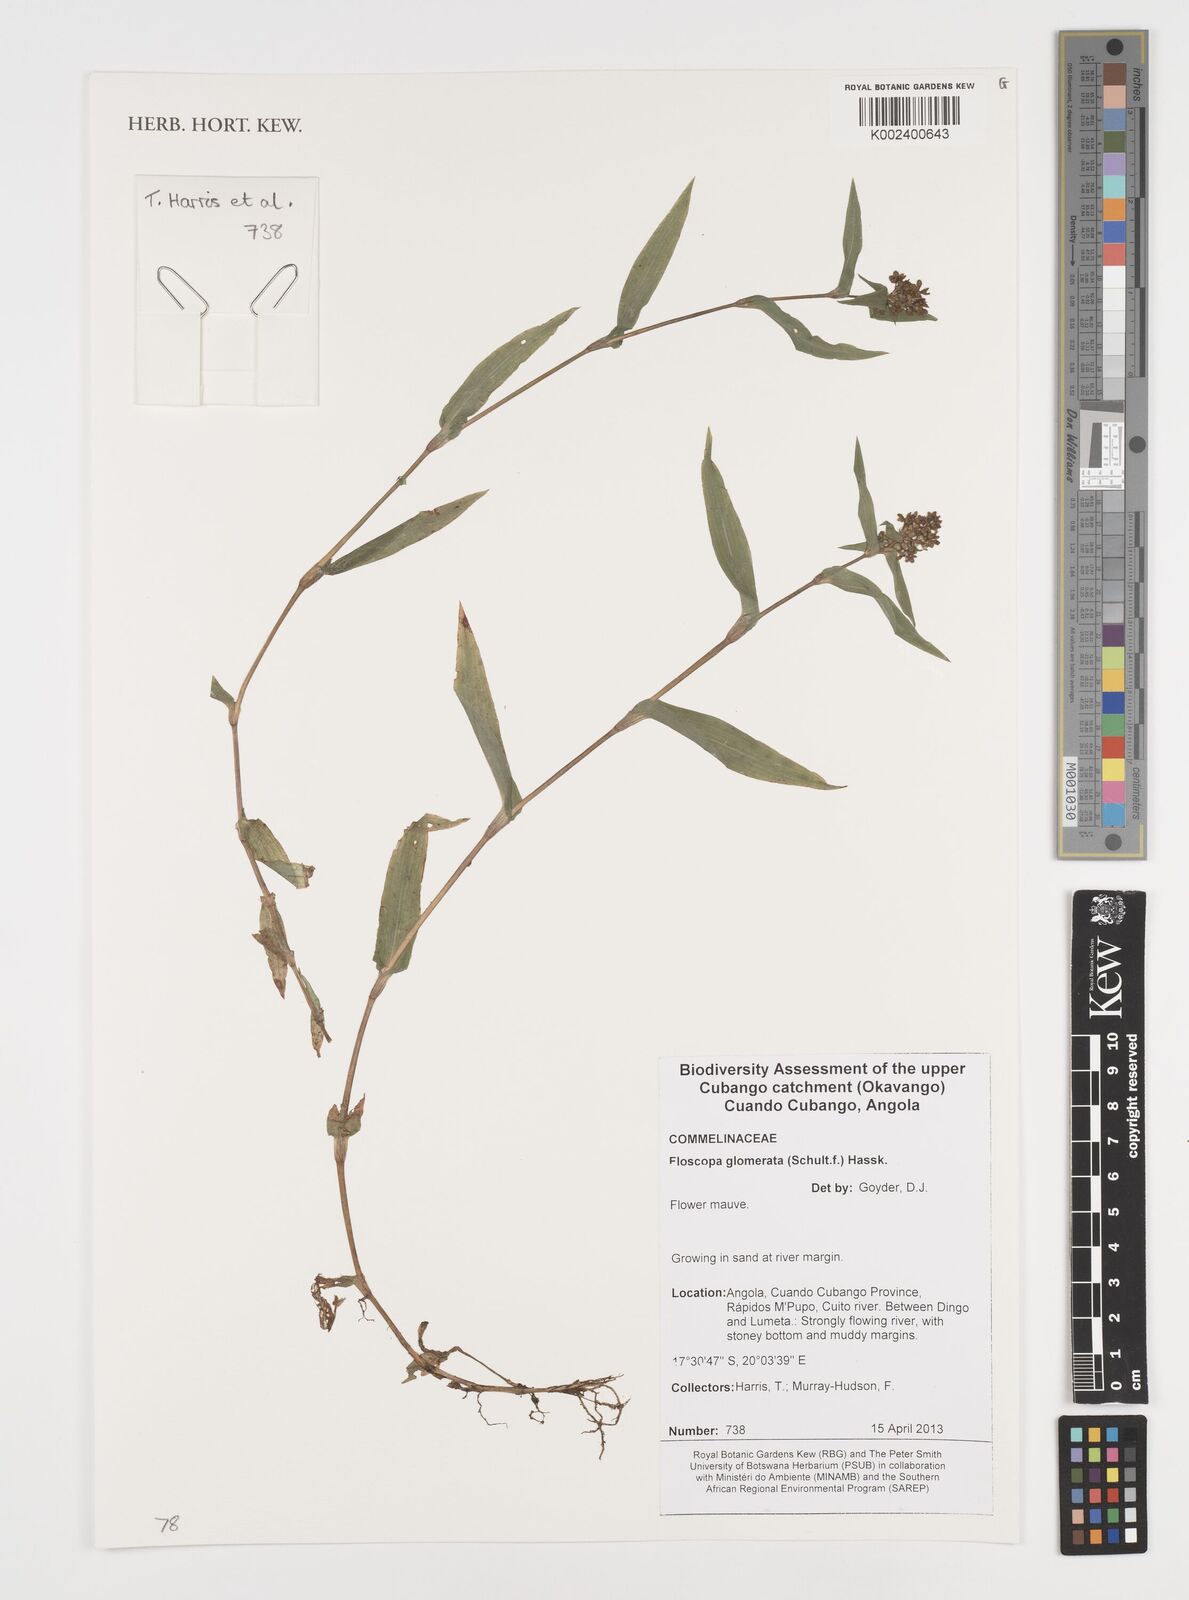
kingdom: Plantae
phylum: Tracheophyta
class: Liliopsida
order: Commelinales
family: Commelinaceae
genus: Floscopa
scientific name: Floscopa glomerata
